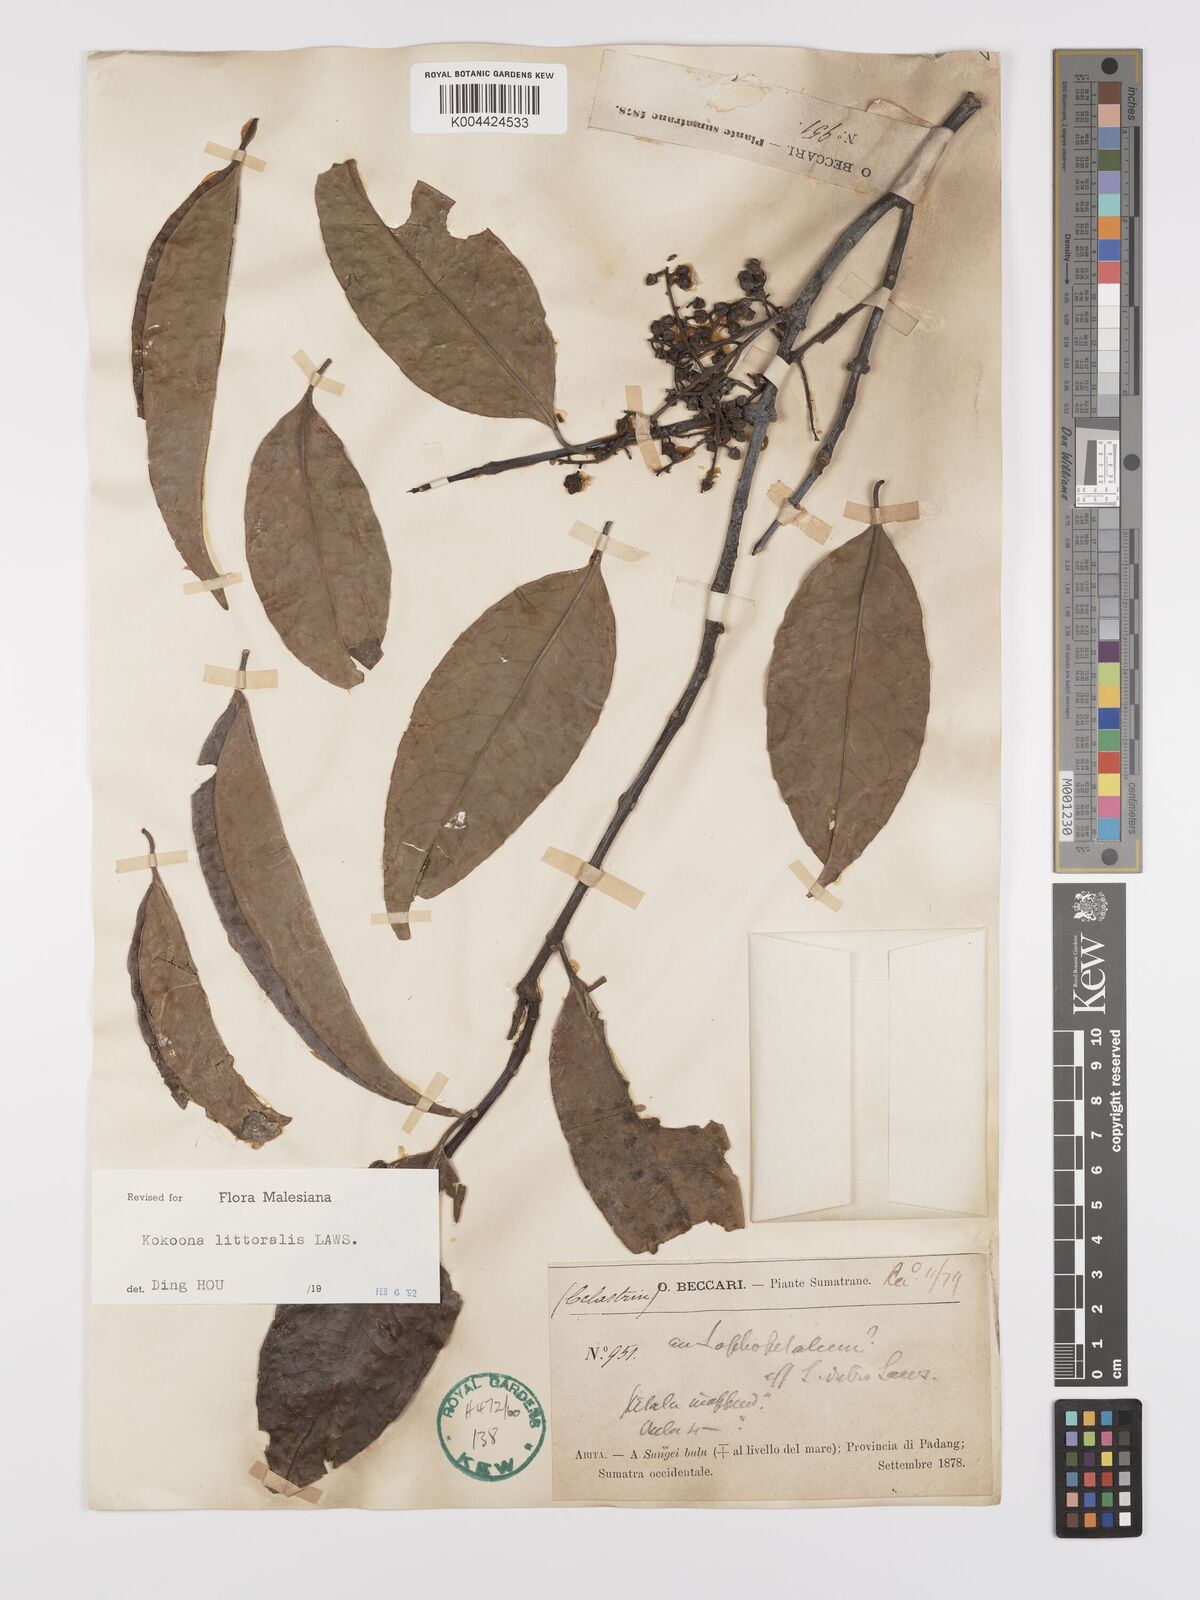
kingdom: Plantae
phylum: Tracheophyta
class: Magnoliopsida
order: Celastrales
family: Celastraceae
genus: Kokoona
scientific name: Kokoona littoralis
